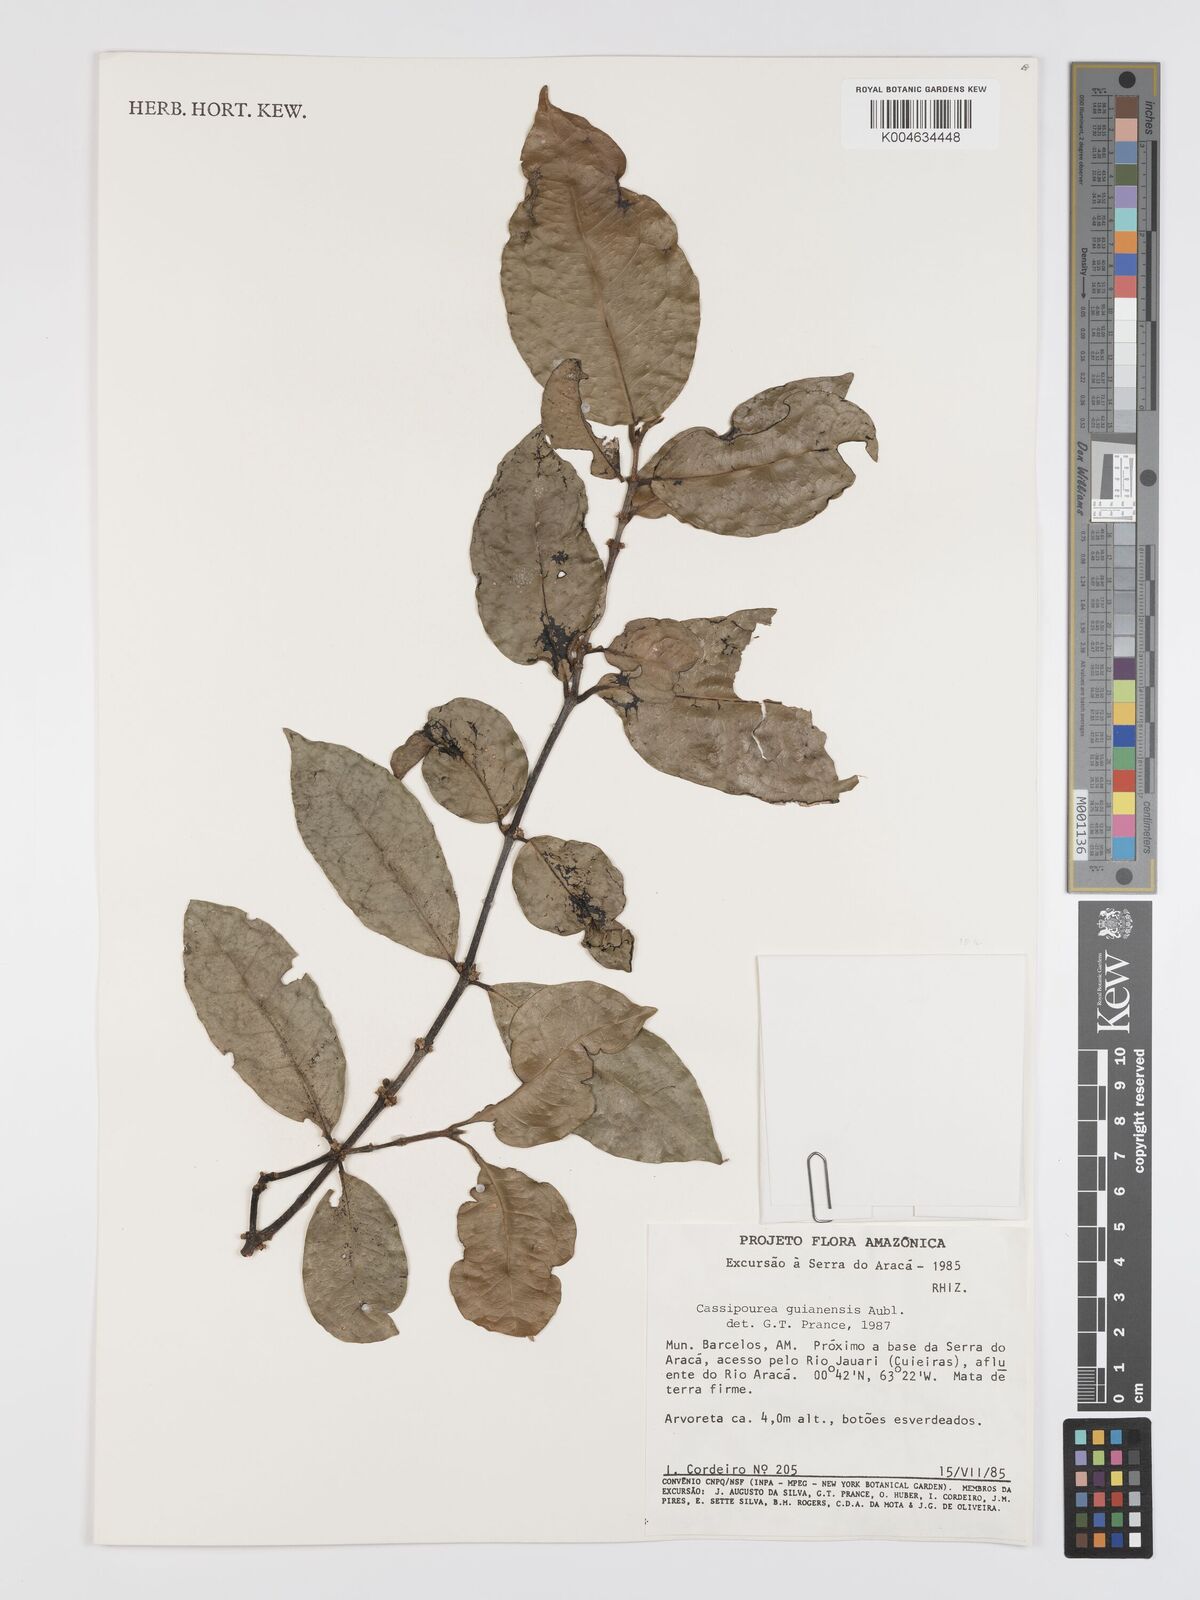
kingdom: Plantae
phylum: Tracheophyta
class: Magnoliopsida
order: Malpighiales
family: Rhizophoraceae
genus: Cassipourea
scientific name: Cassipourea guianensis
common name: Bastard waterwood
